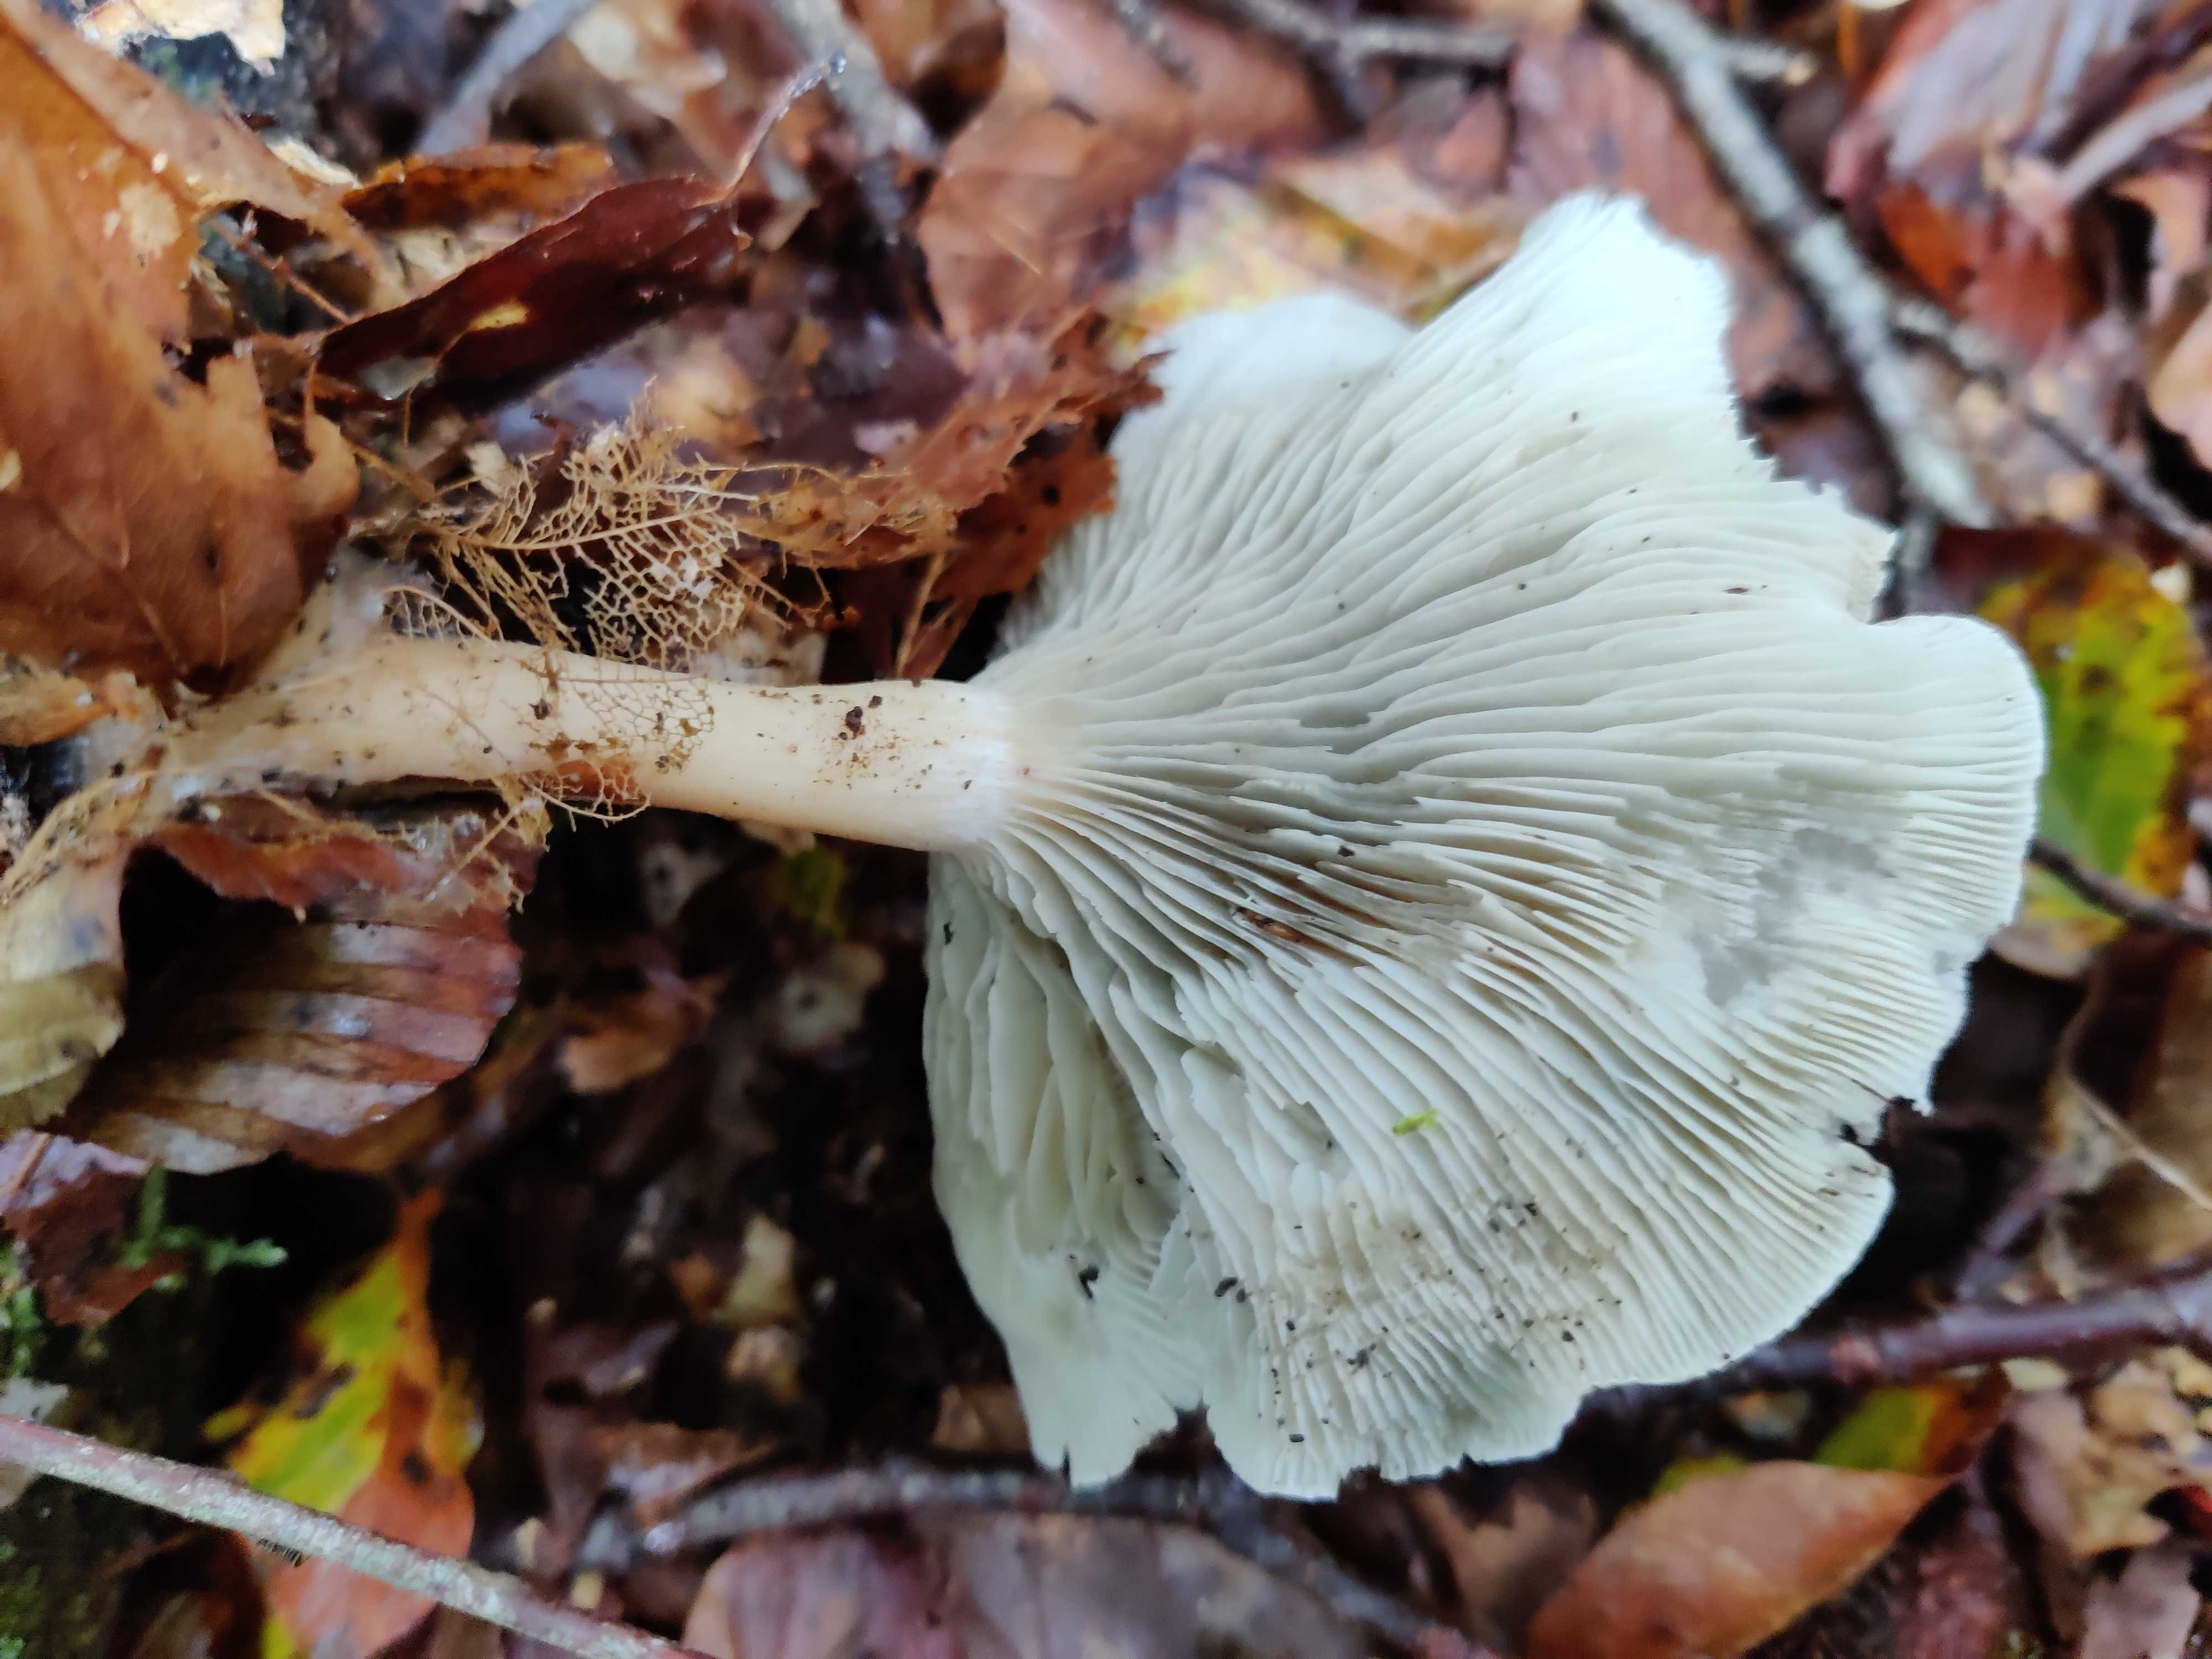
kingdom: Fungi
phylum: Basidiomycota
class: Agaricomycetes
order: Agaricales
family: Tricholomataceae
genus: Clitocybe
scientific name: Clitocybe odora
